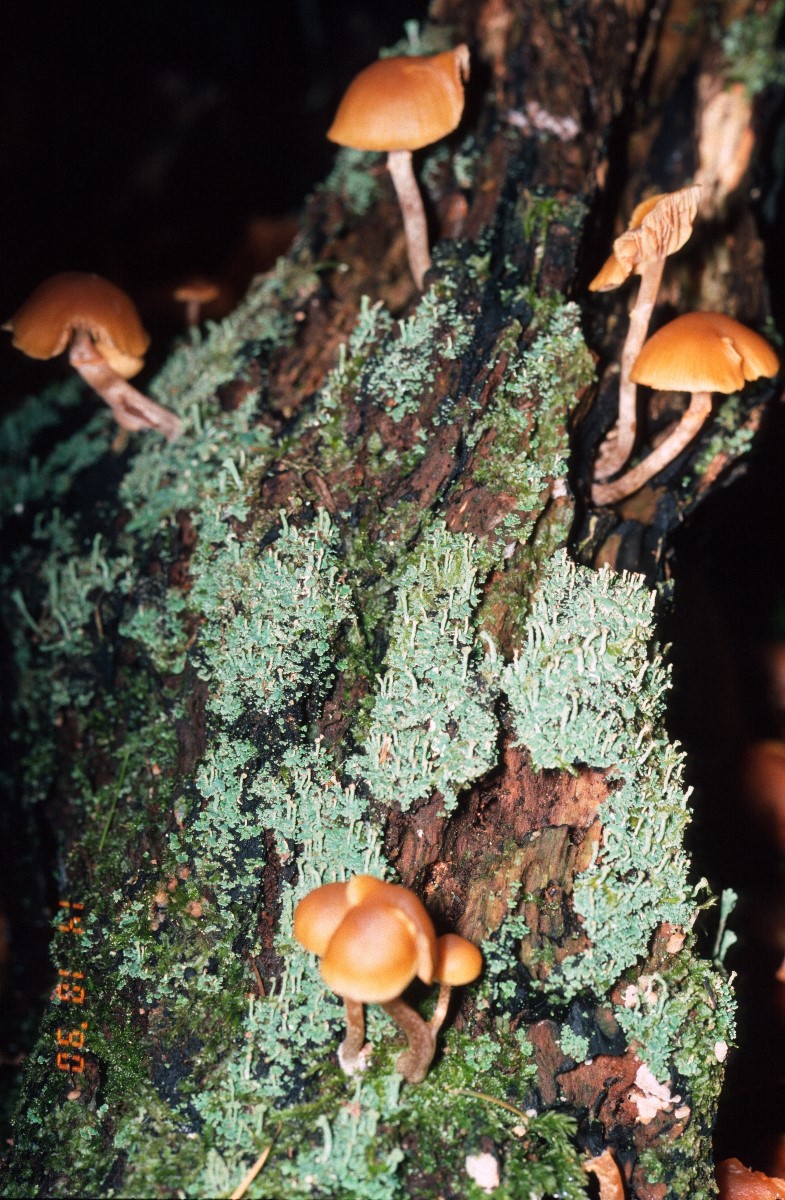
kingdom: Fungi
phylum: Basidiomycota
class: Agaricomycetes
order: Agaricales
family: Hymenogastraceae
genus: Galerina
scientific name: Galerina marginata
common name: randbæltet hjelmhat
